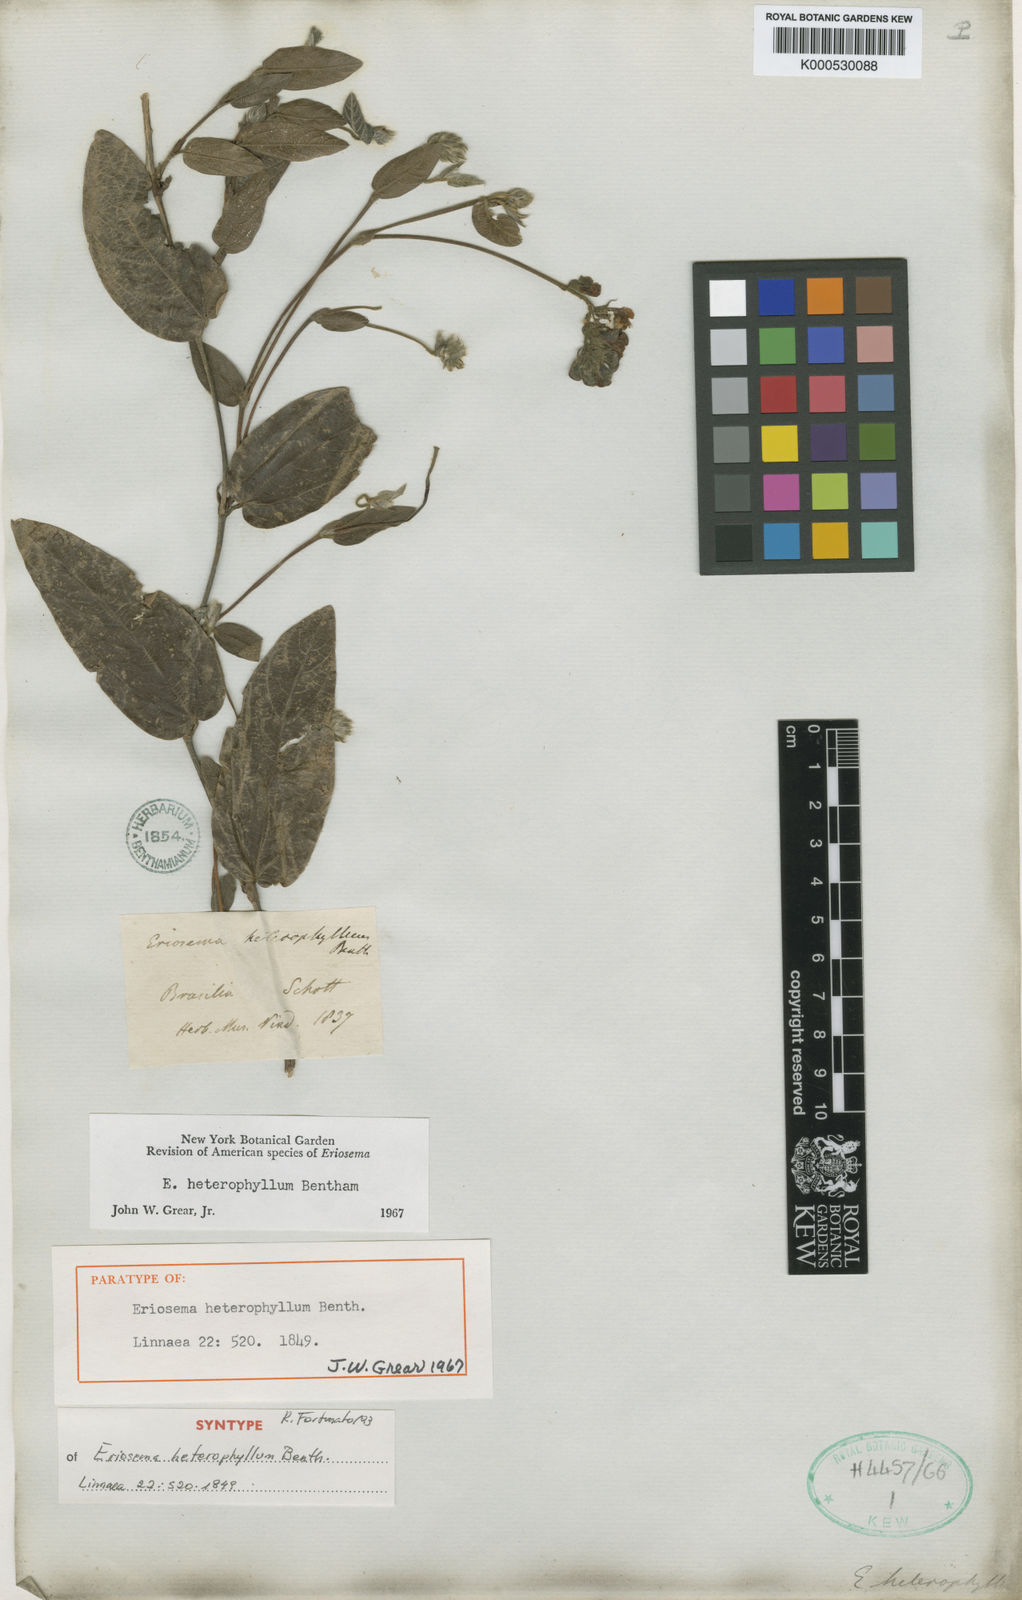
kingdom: Plantae
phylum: Tracheophyta
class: Magnoliopsida
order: Fabales
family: Fabaceae
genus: Eriosema
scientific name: Eriosema heterophyllum
